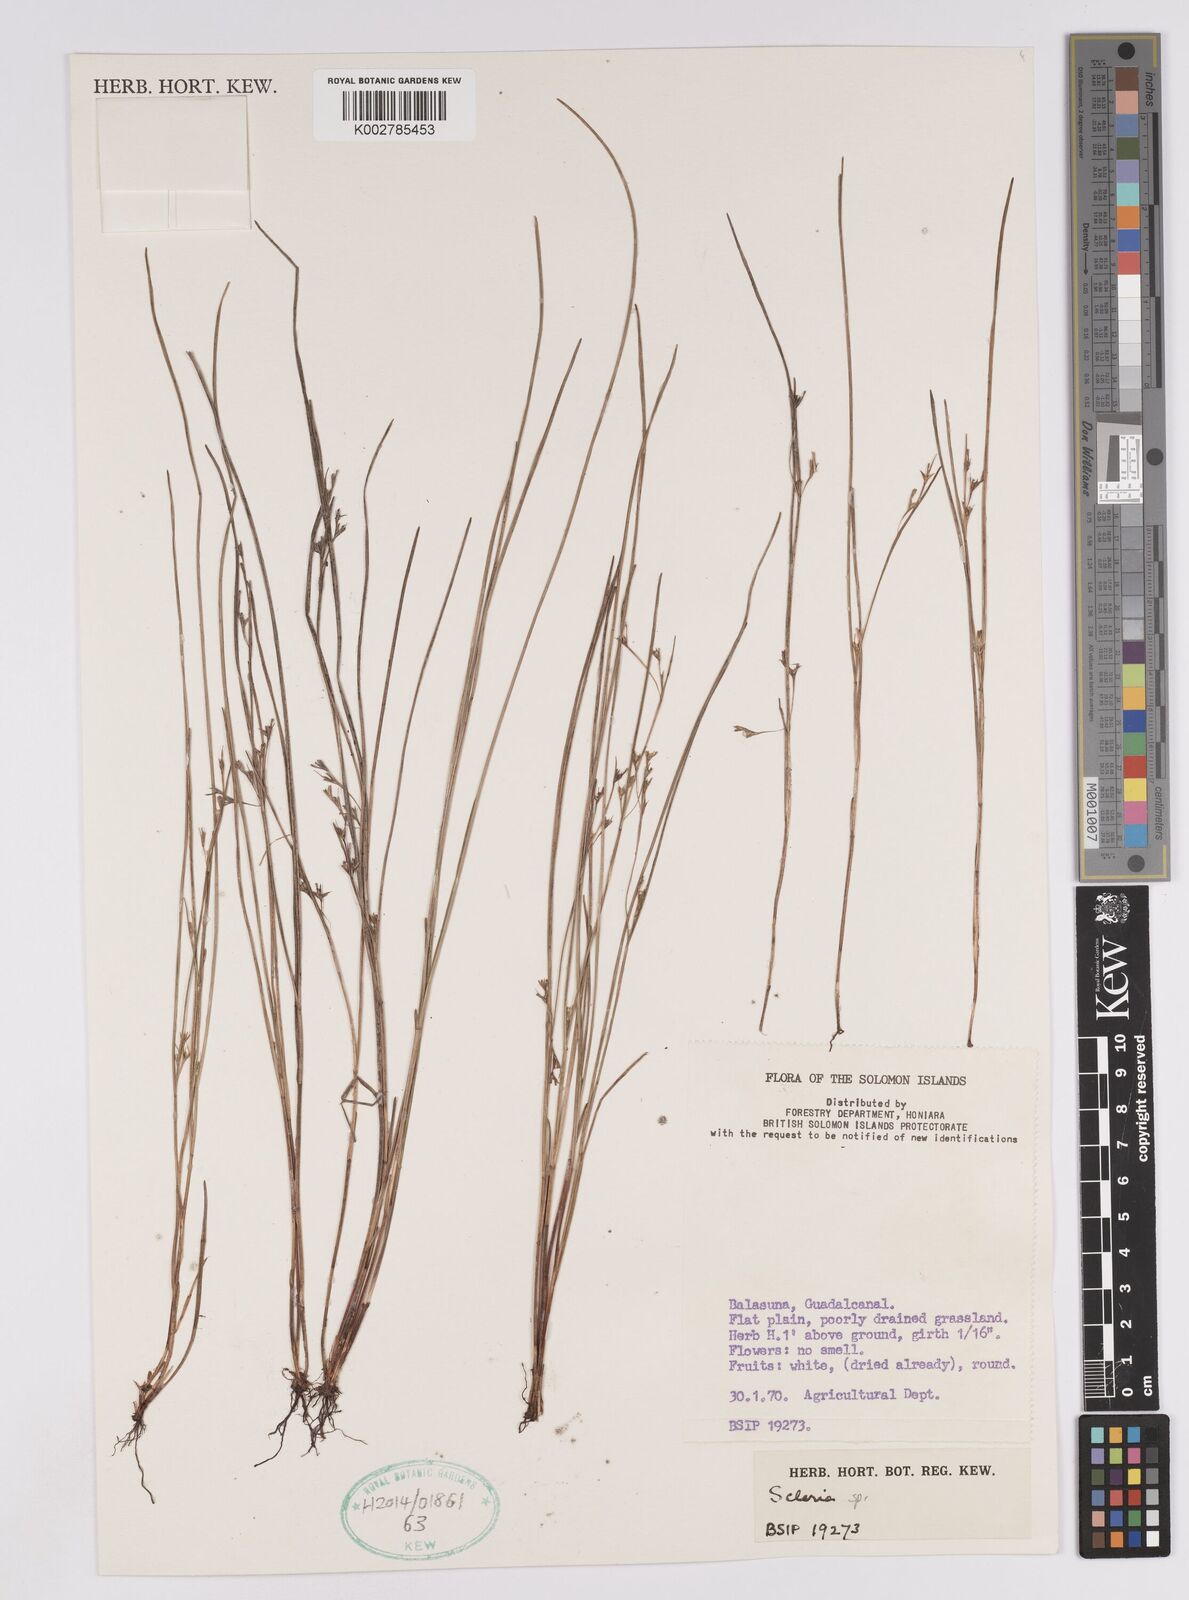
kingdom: Plantae
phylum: Tracheophyta
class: Liliopsida
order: Poales
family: Cyperaceae
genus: Scleria
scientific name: Scleria
